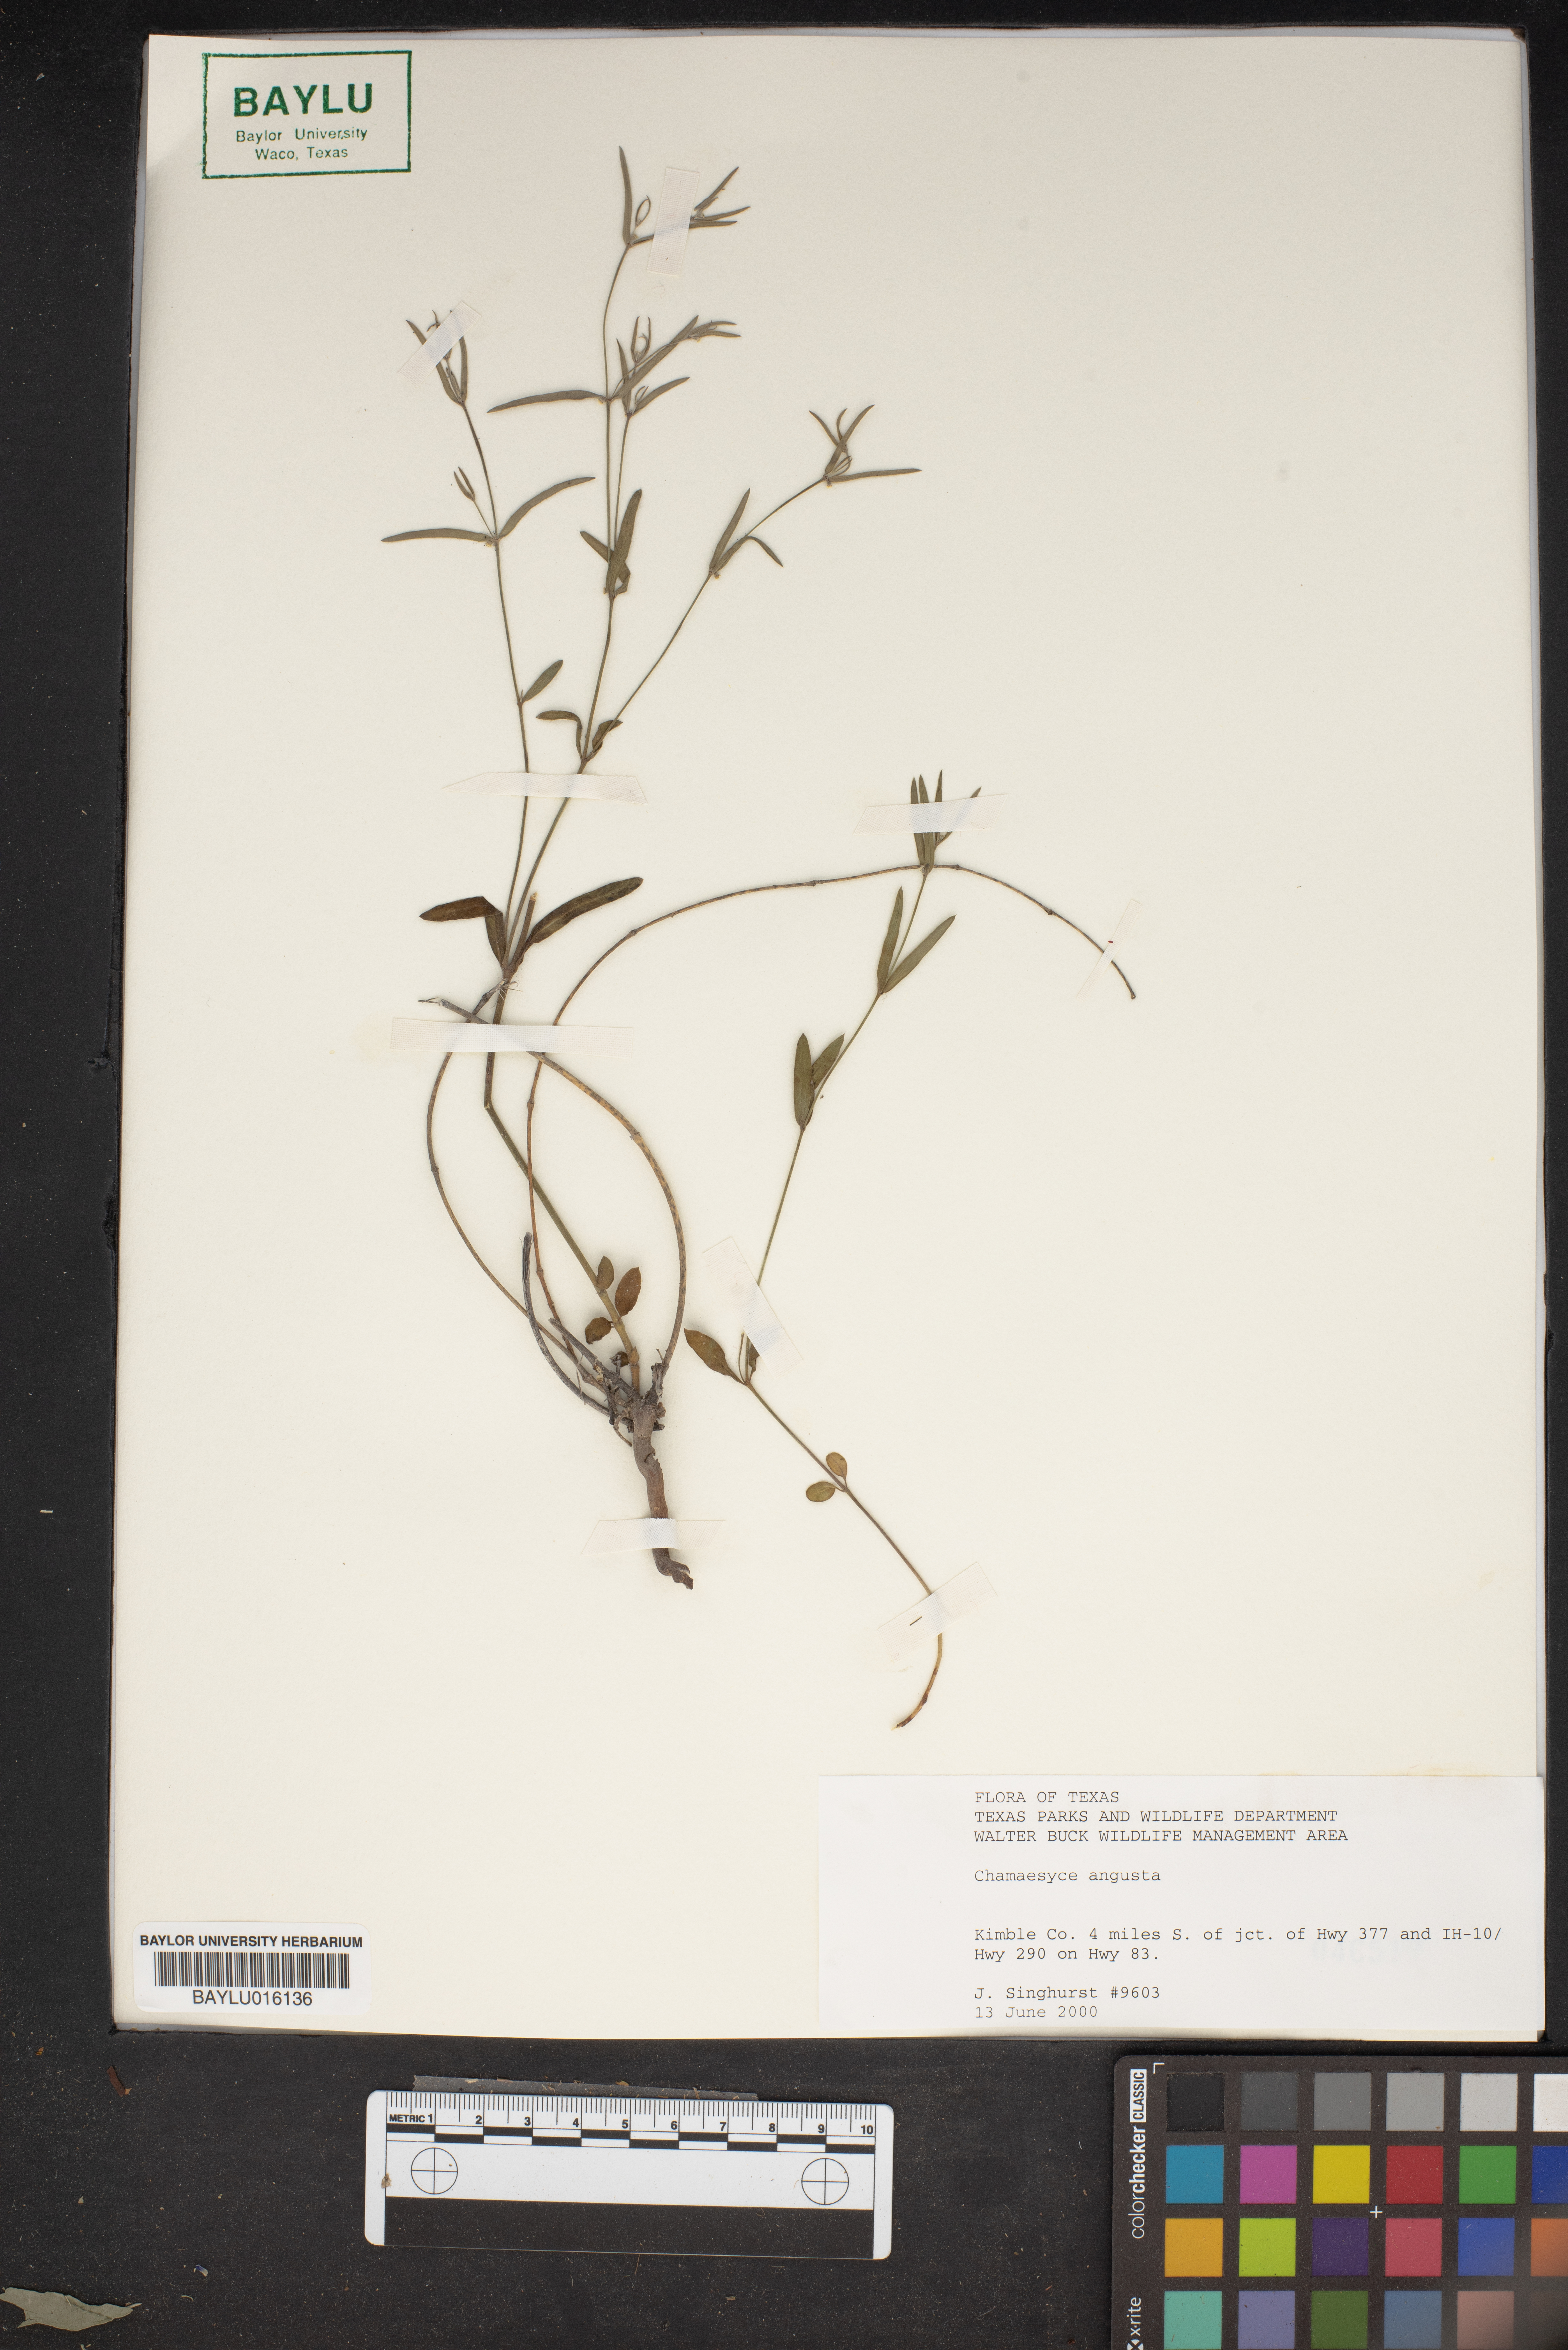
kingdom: Plantae
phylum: Tracheophyta
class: Magnoliopsida
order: Malpighiales
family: Euphorbiaceae
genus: Euphorbia
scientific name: Euphorbia angusta
